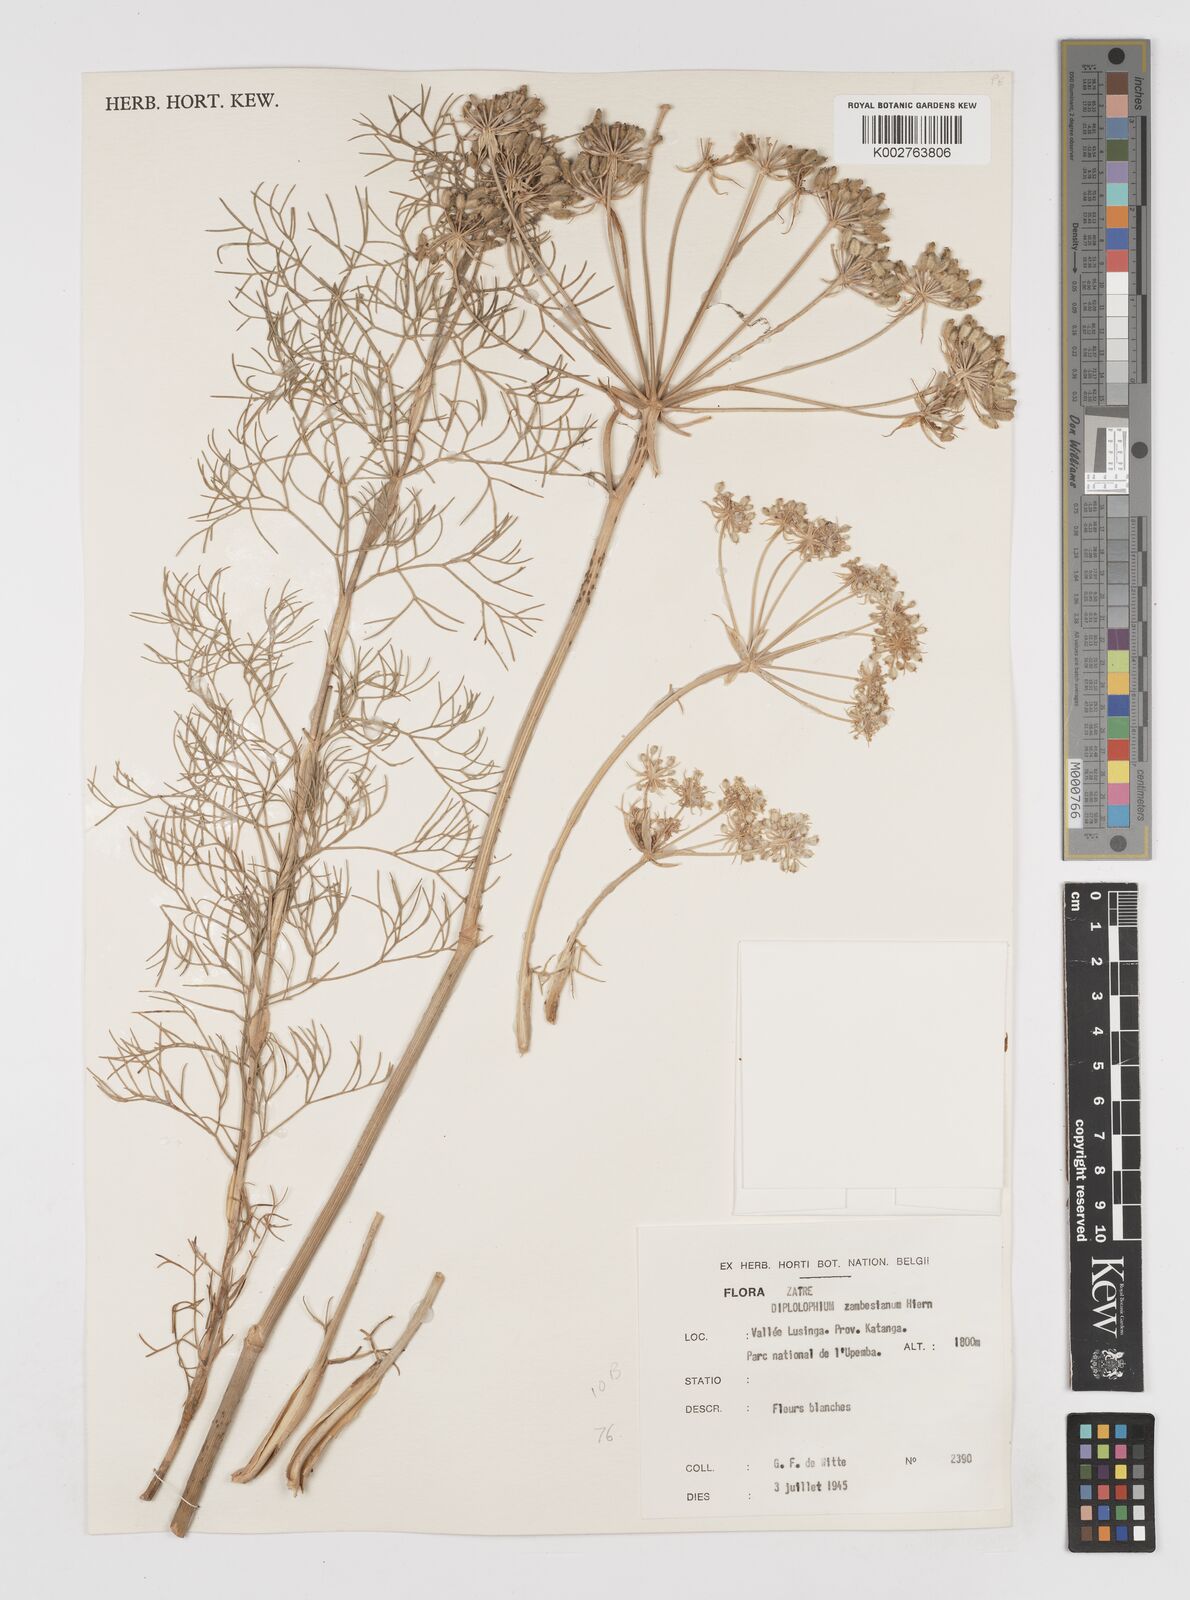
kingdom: Plantae
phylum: Tracheophyta
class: Magnoliopsida
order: Apiales
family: Apiaceae
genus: Diplolophium
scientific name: Diplolophium zambesianum
